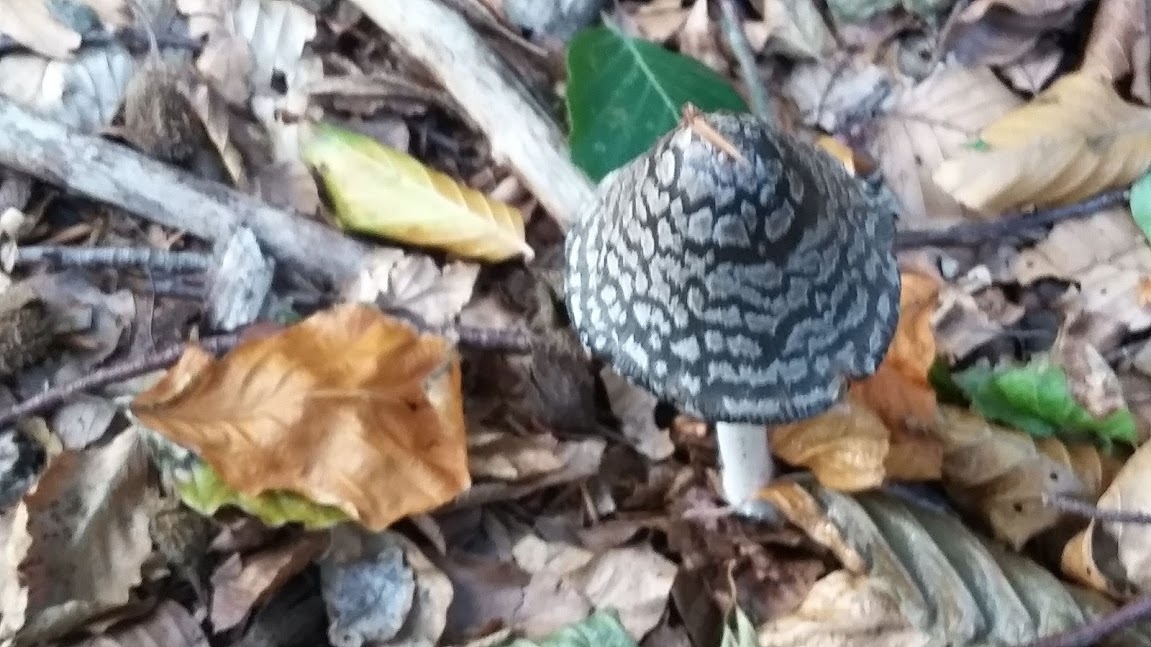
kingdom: Fungi
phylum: Basidiomycota
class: Agaricomycetes
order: Agaricales
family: Psathyrellaceae
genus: Coprinopsis
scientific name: Coprinopsis picacea
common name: skade-blækhat
